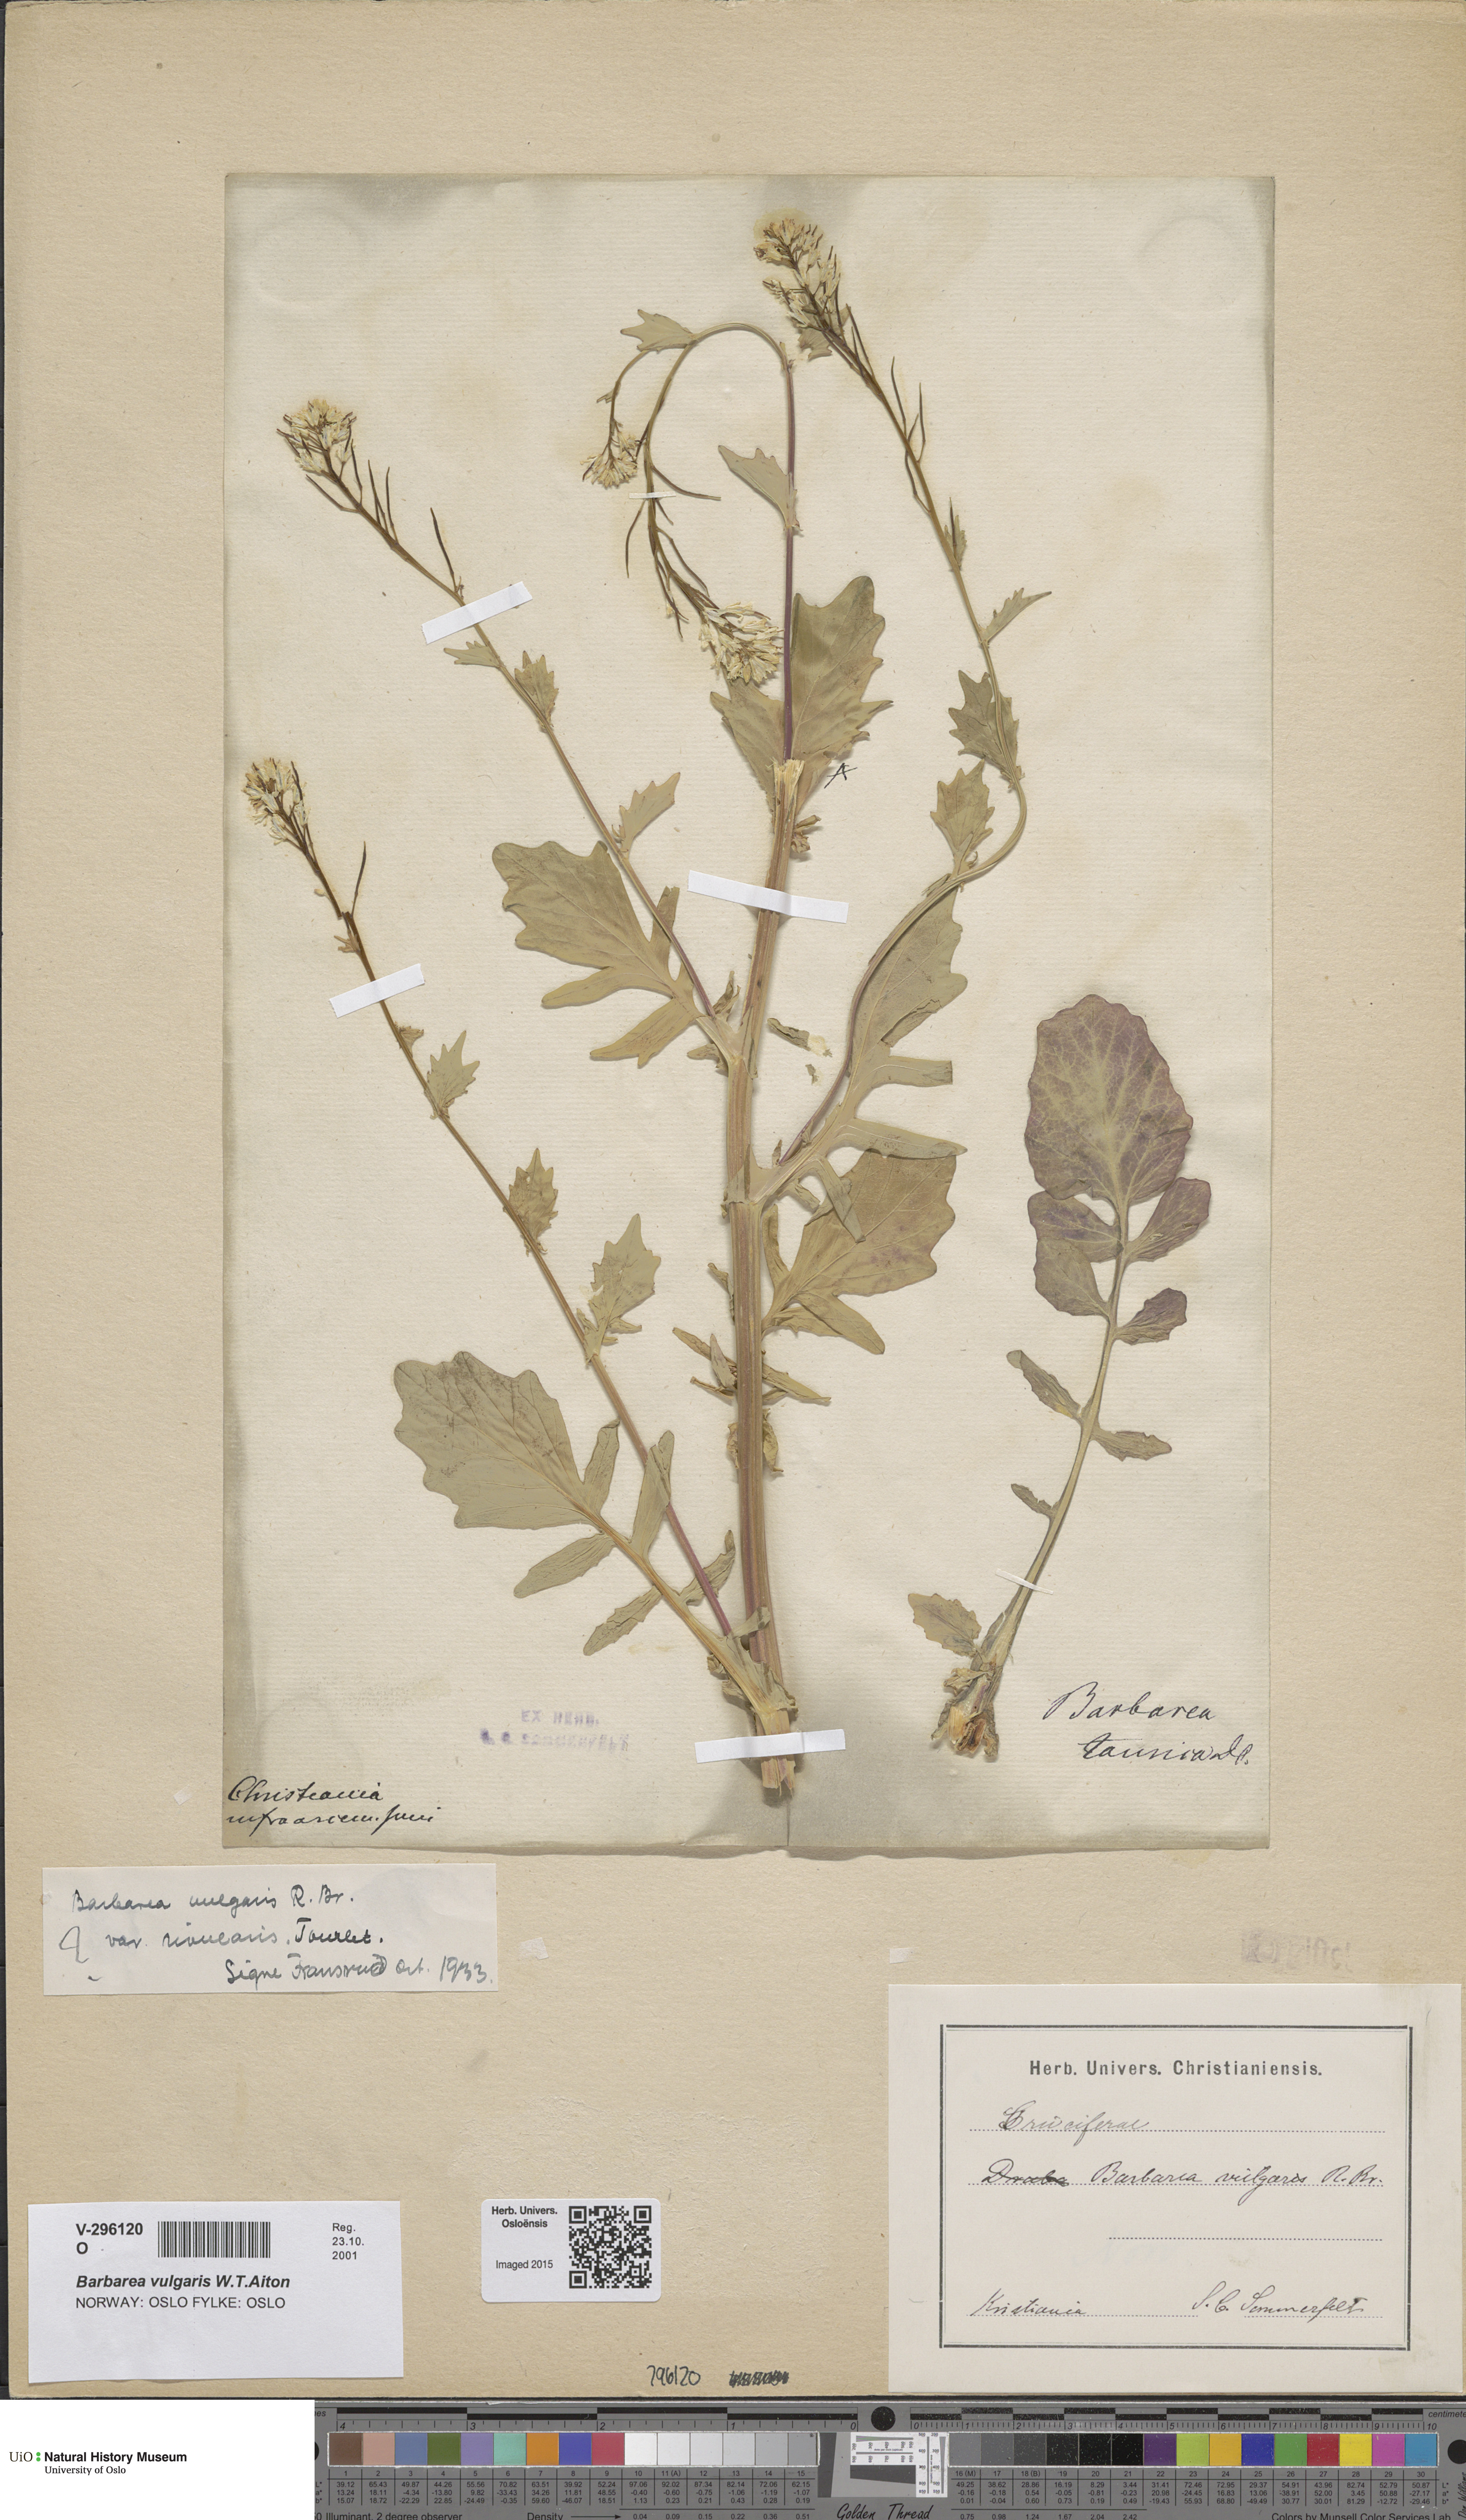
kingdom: Plantae
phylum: Tracheophyta
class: Magnoliopsida
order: Brassicales
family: Brassicaceae
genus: Barbarea
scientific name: Barbarea vulgaris
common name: Cressy-greens
